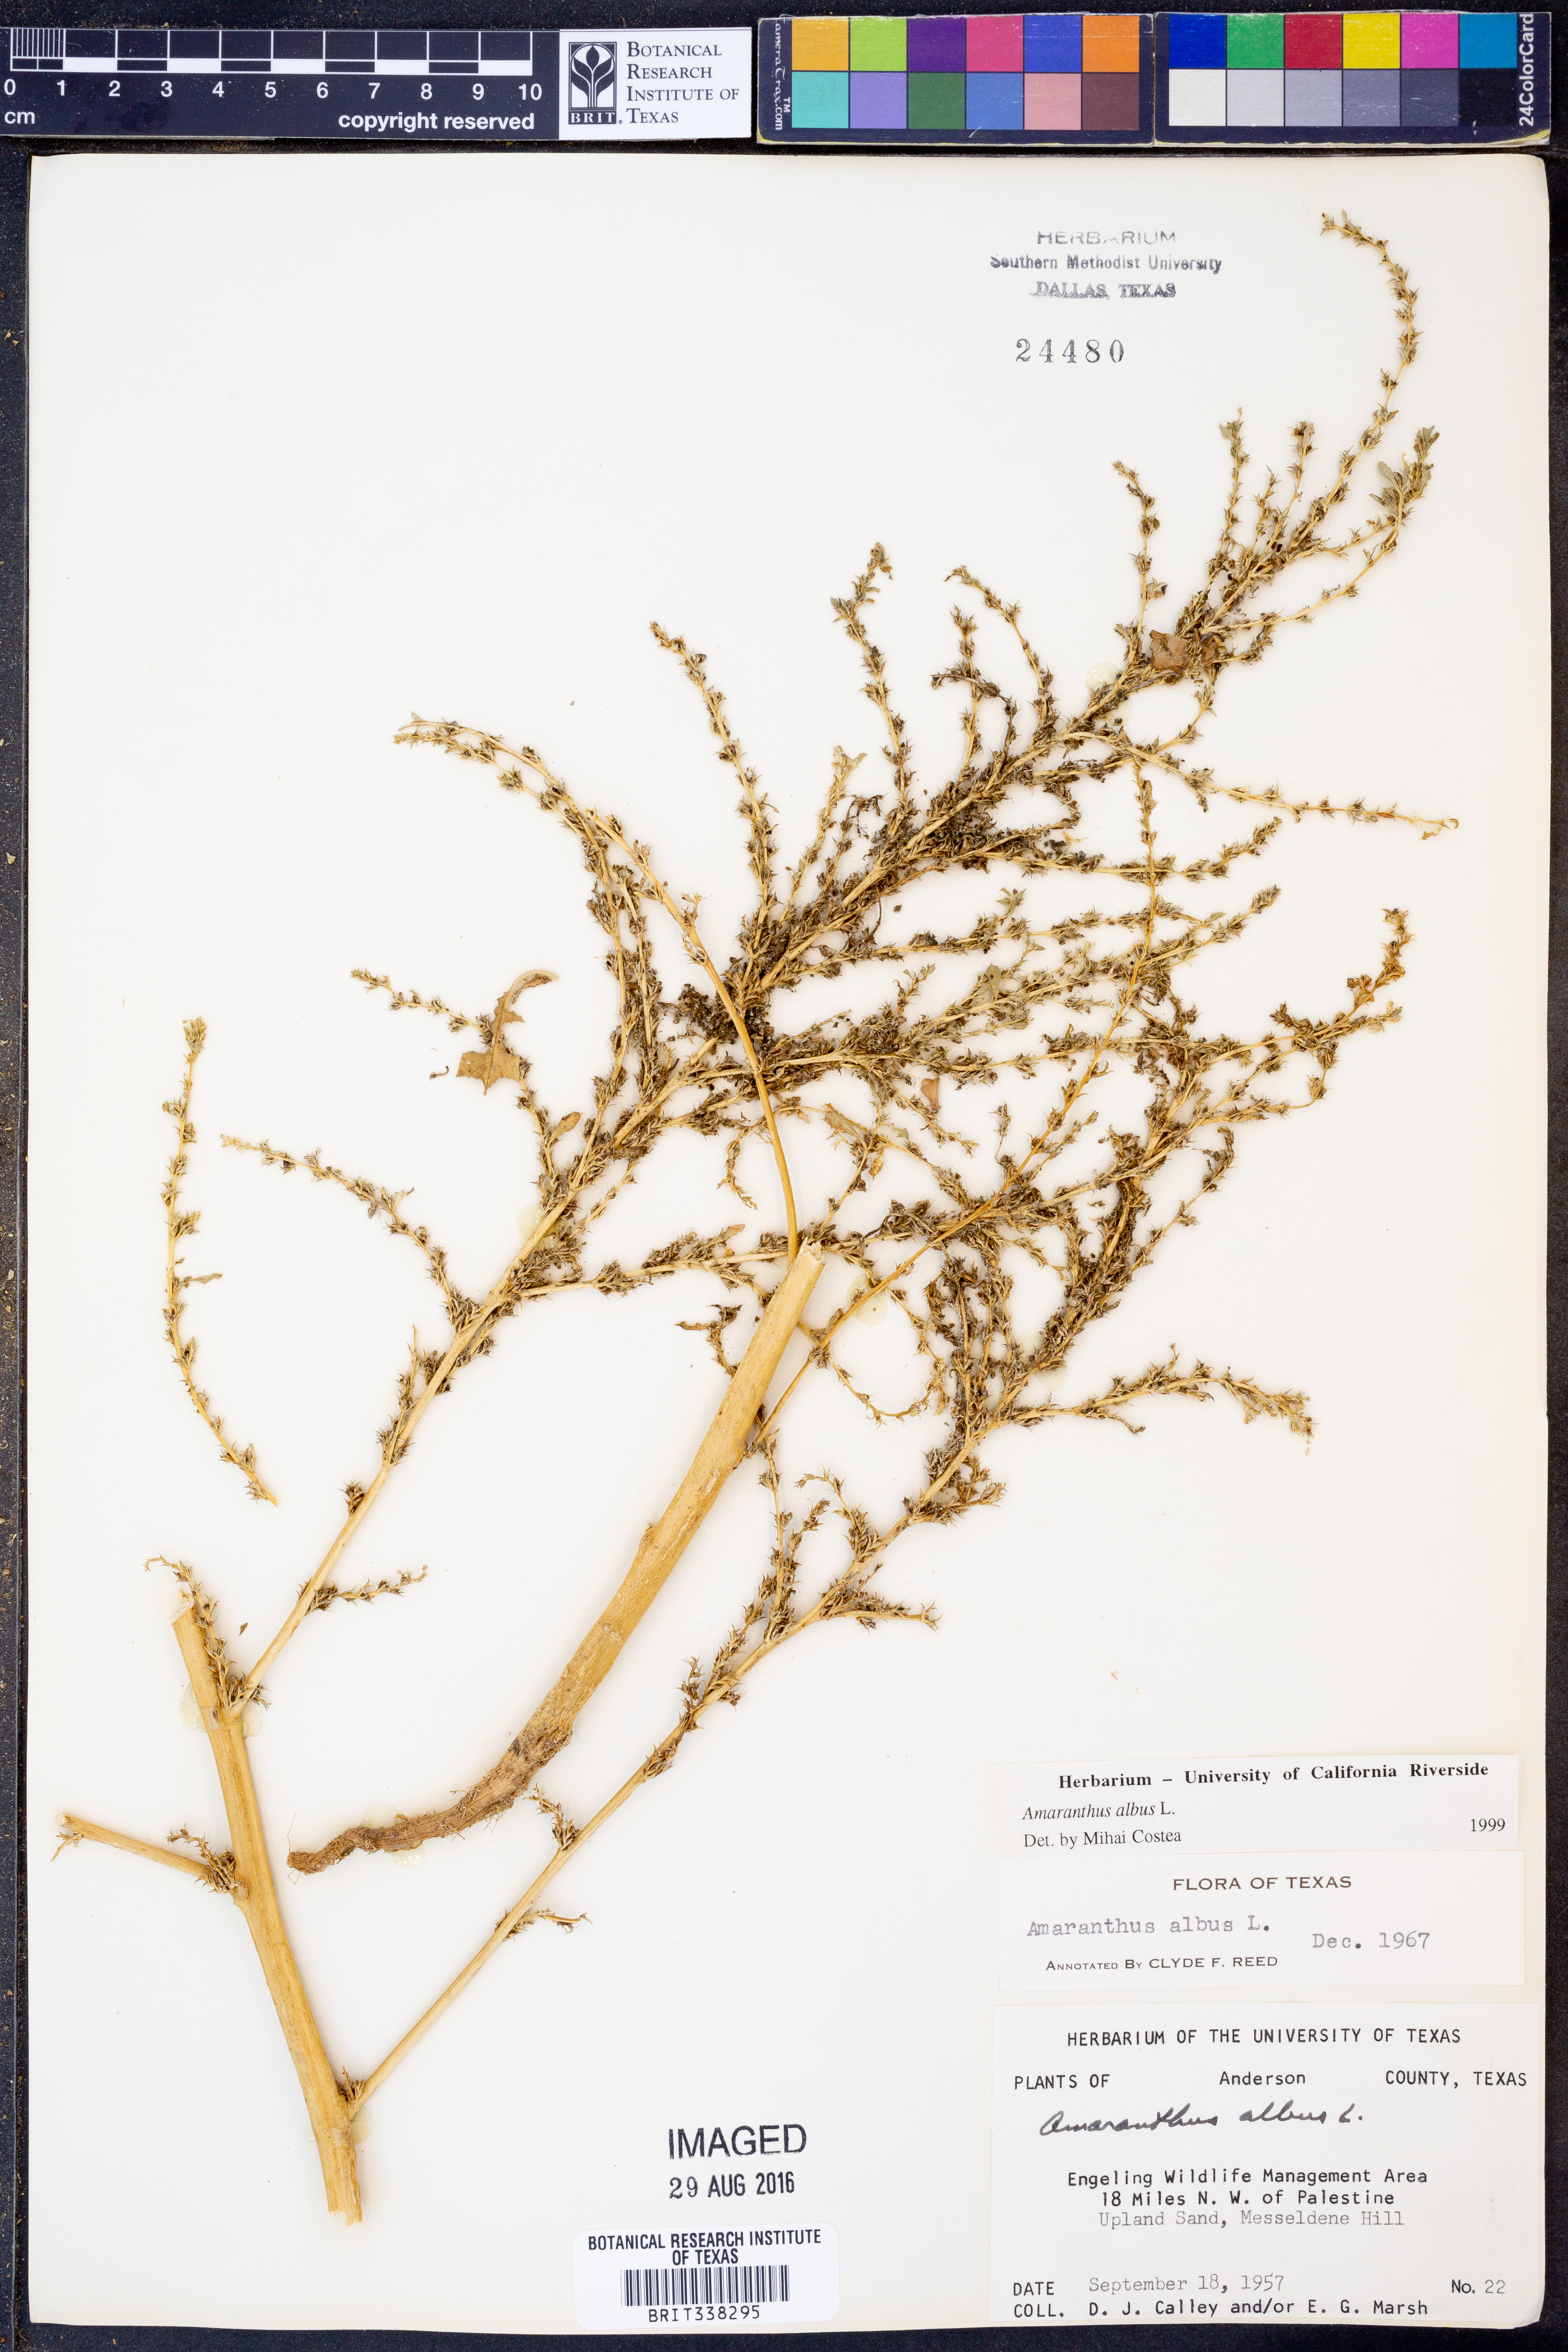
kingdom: Plantae
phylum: Tracheophyta
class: Magnoliopsida
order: Caryophyllales
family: Amaranthaceae
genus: Amaranthus
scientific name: Amaranthus albus
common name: White pigweed
